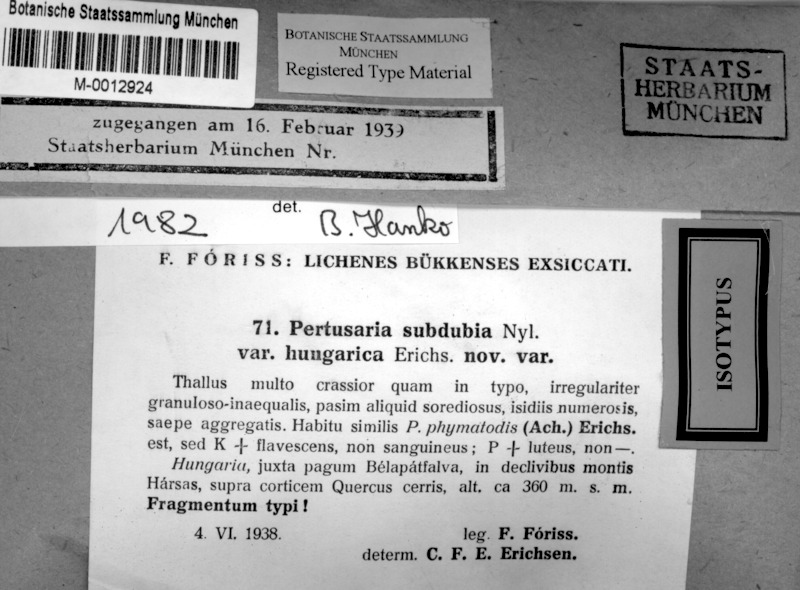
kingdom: Fungi
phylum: Ascomycota
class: Lecanoromycetes
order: Pertusariales
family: Pertusariaceae
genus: Pertusaria
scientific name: Pertusaria subdubia
